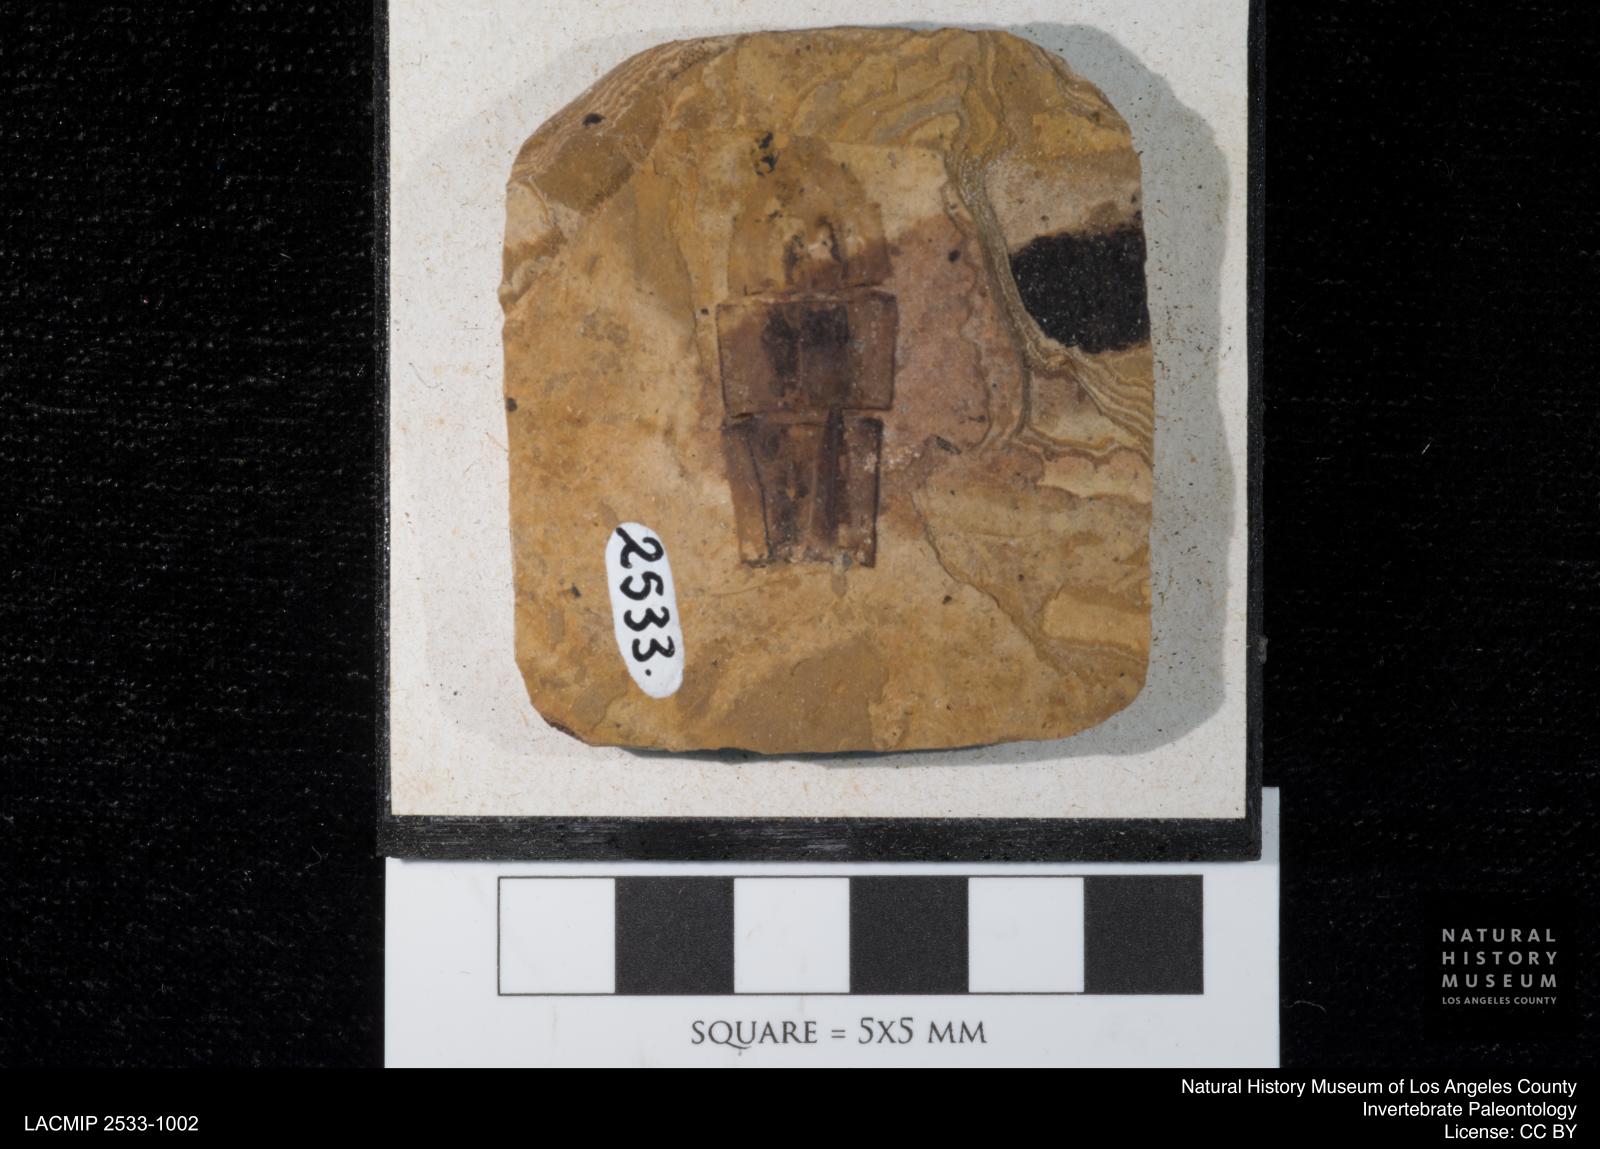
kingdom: Animalia
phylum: Arthropoda
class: Insecta
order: Odonata
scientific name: Odonata
